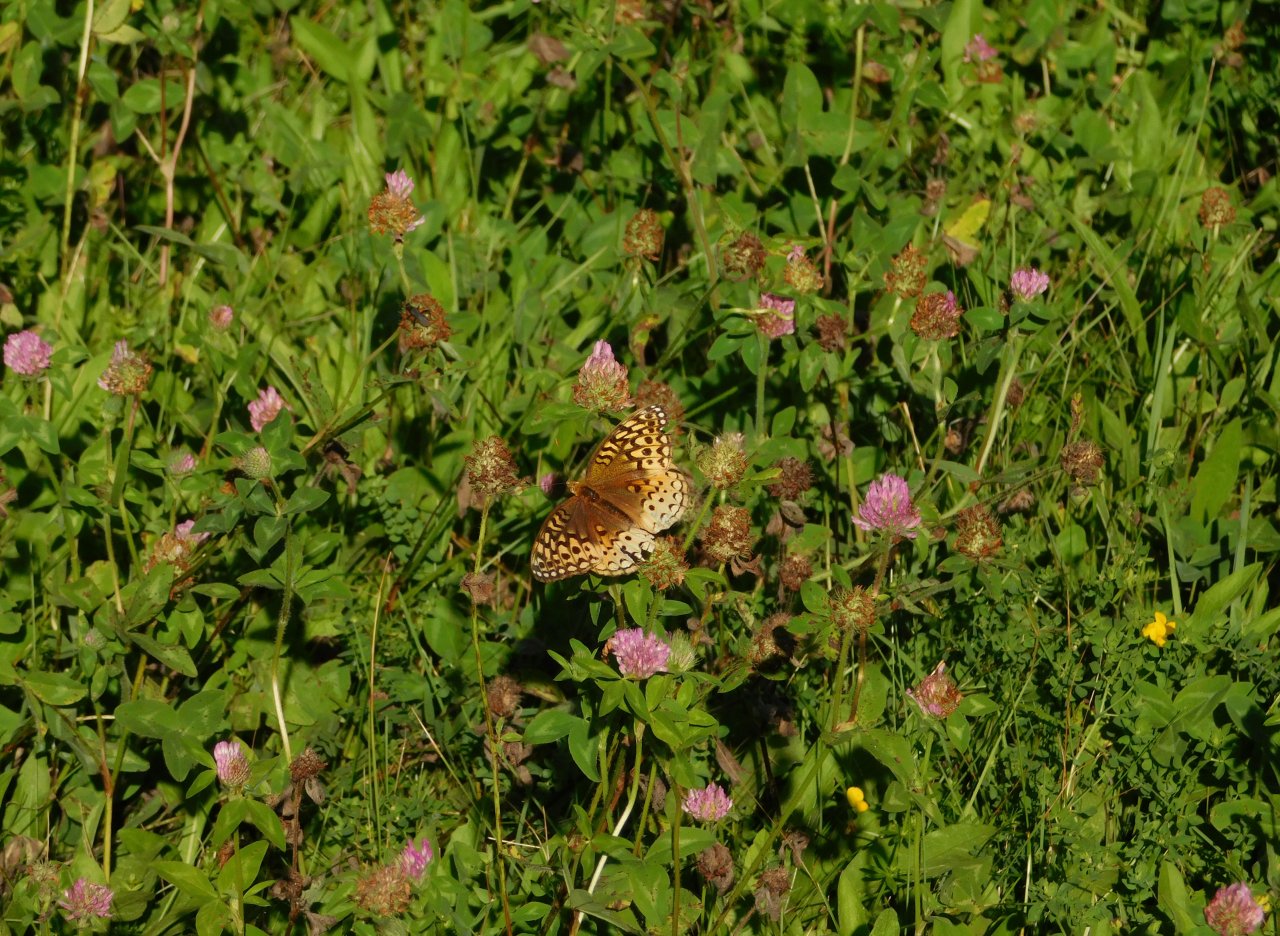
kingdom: Animalia
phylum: Arthropoda
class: Insecta
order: Lepidoptera
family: Nymphalidae
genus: Speyeria
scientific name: Speyeria cybele
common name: Great Spangled Fritillary
